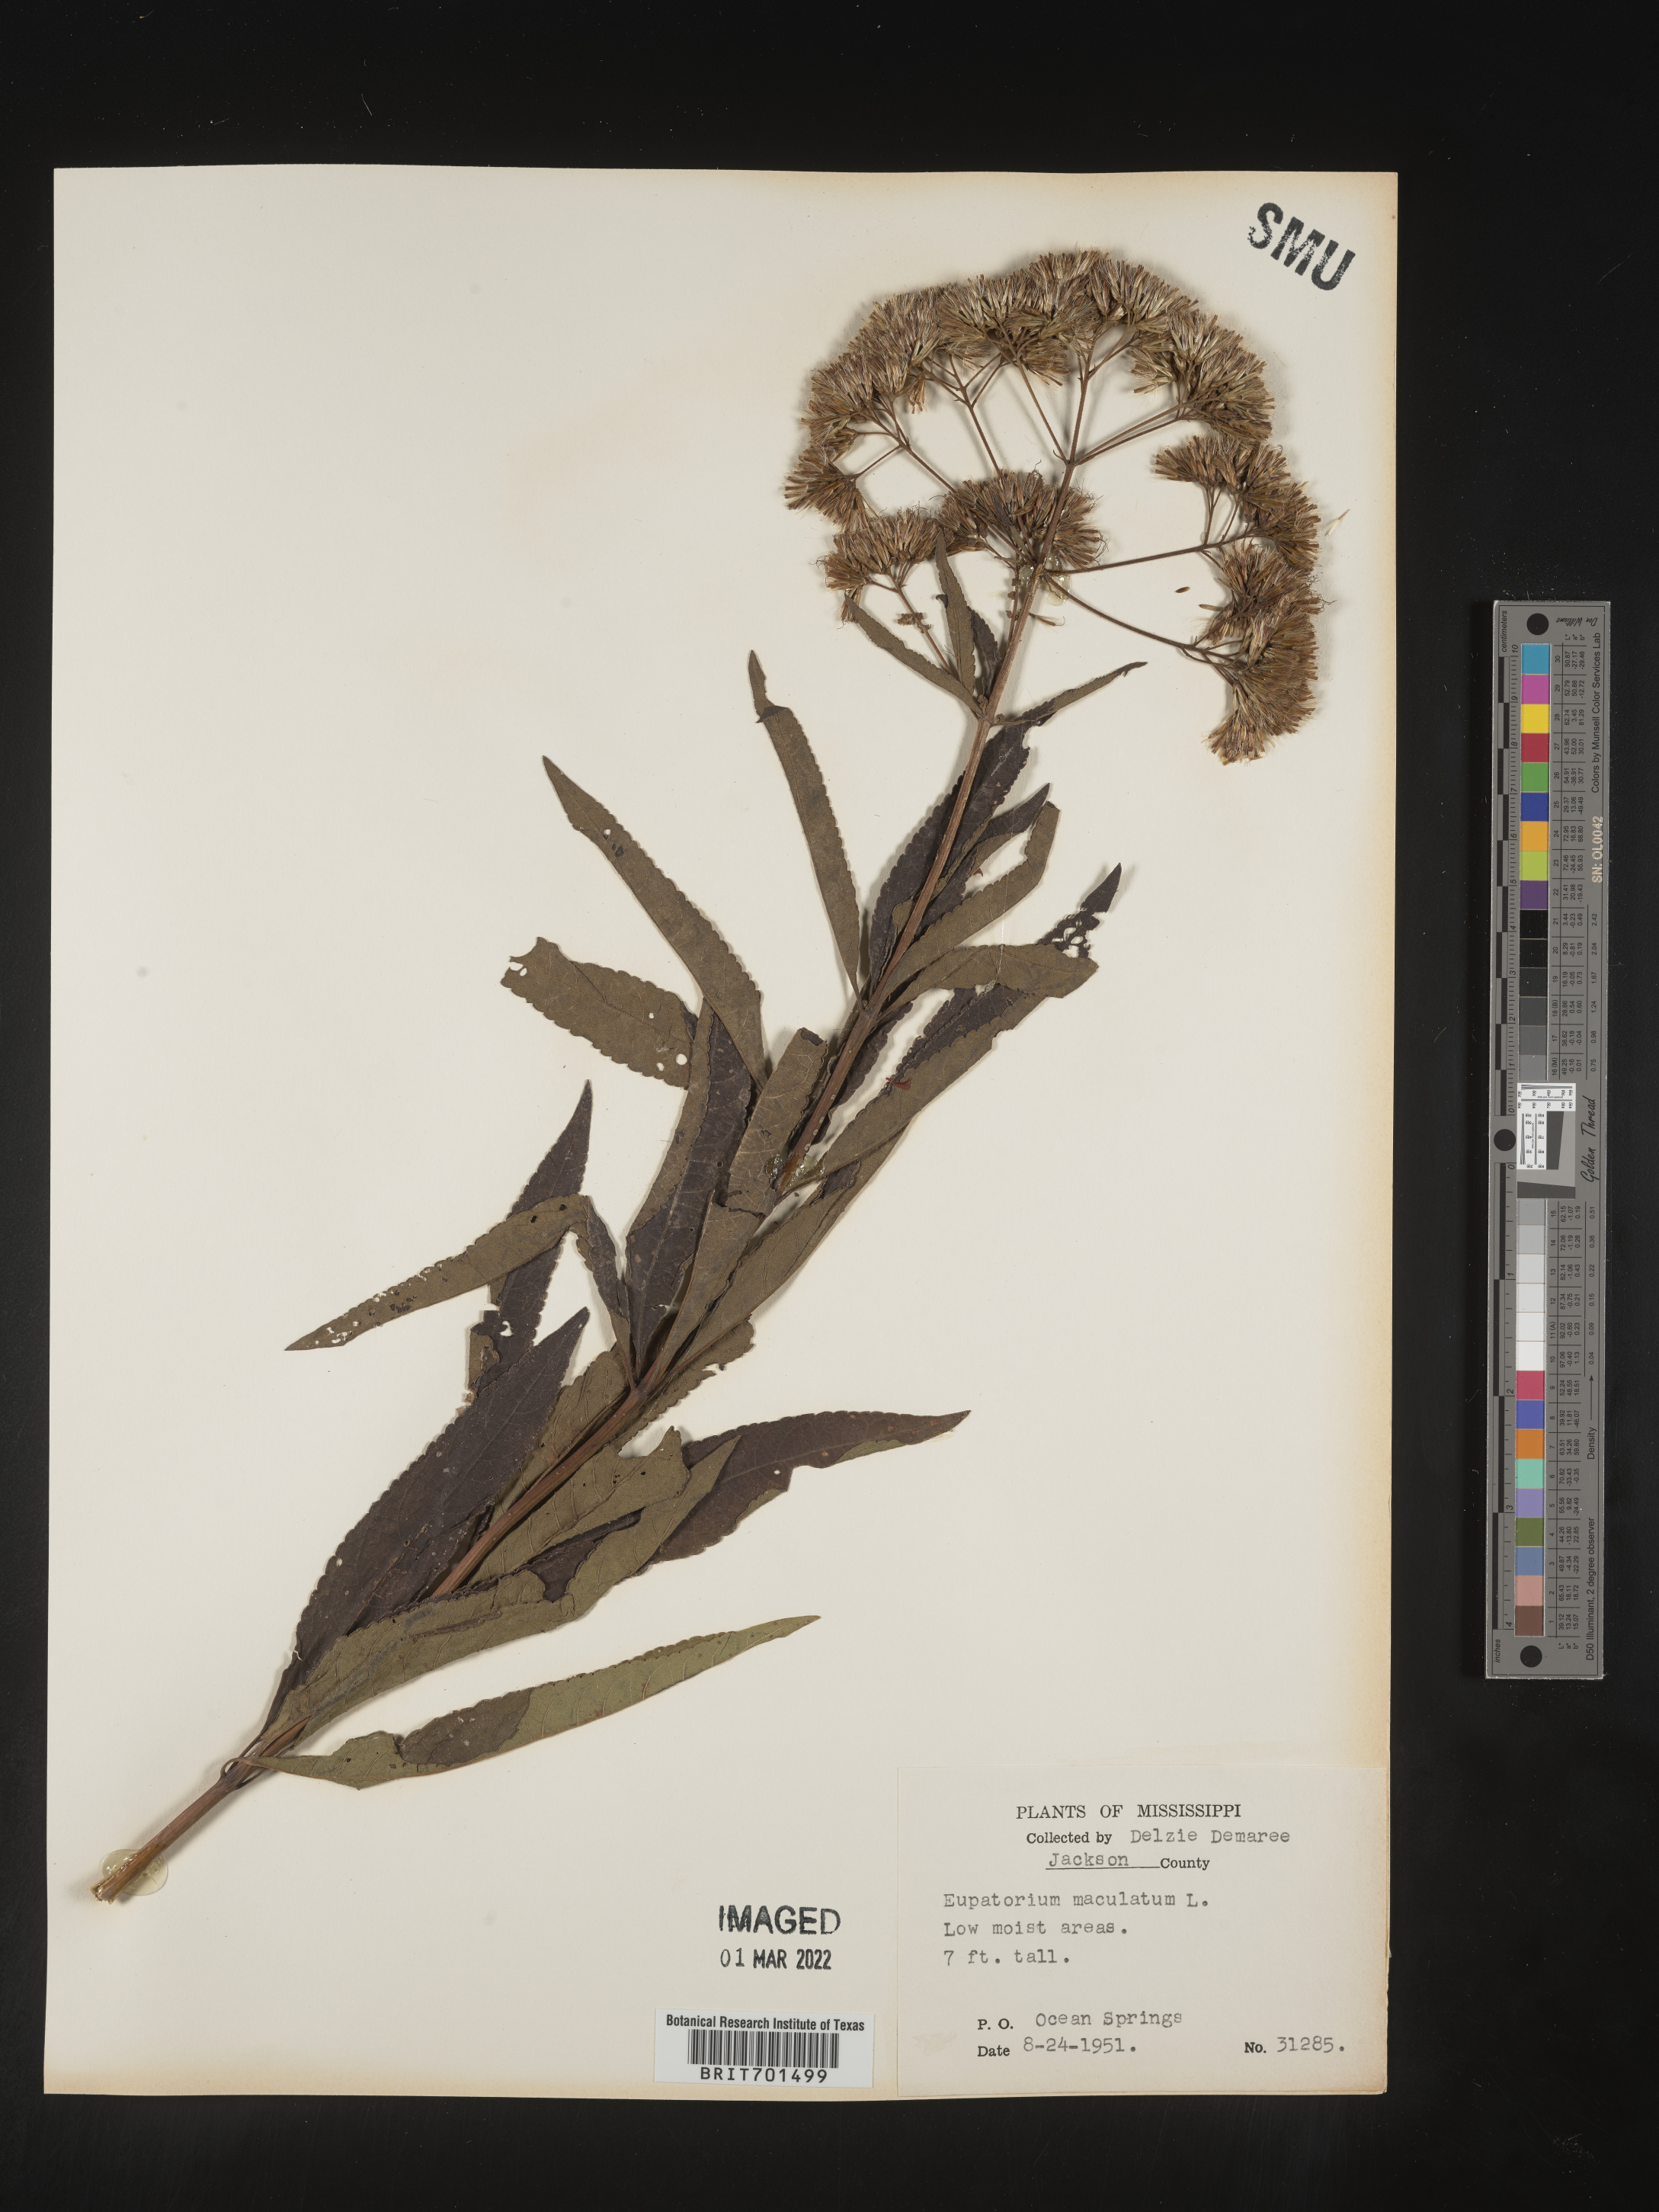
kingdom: Plantae
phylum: Tracheophyta
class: Magnoliopsida
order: Asterales
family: Asteraceae
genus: Eutrochium
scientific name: Eutrochium maculatum
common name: Spotted joe pye weed
